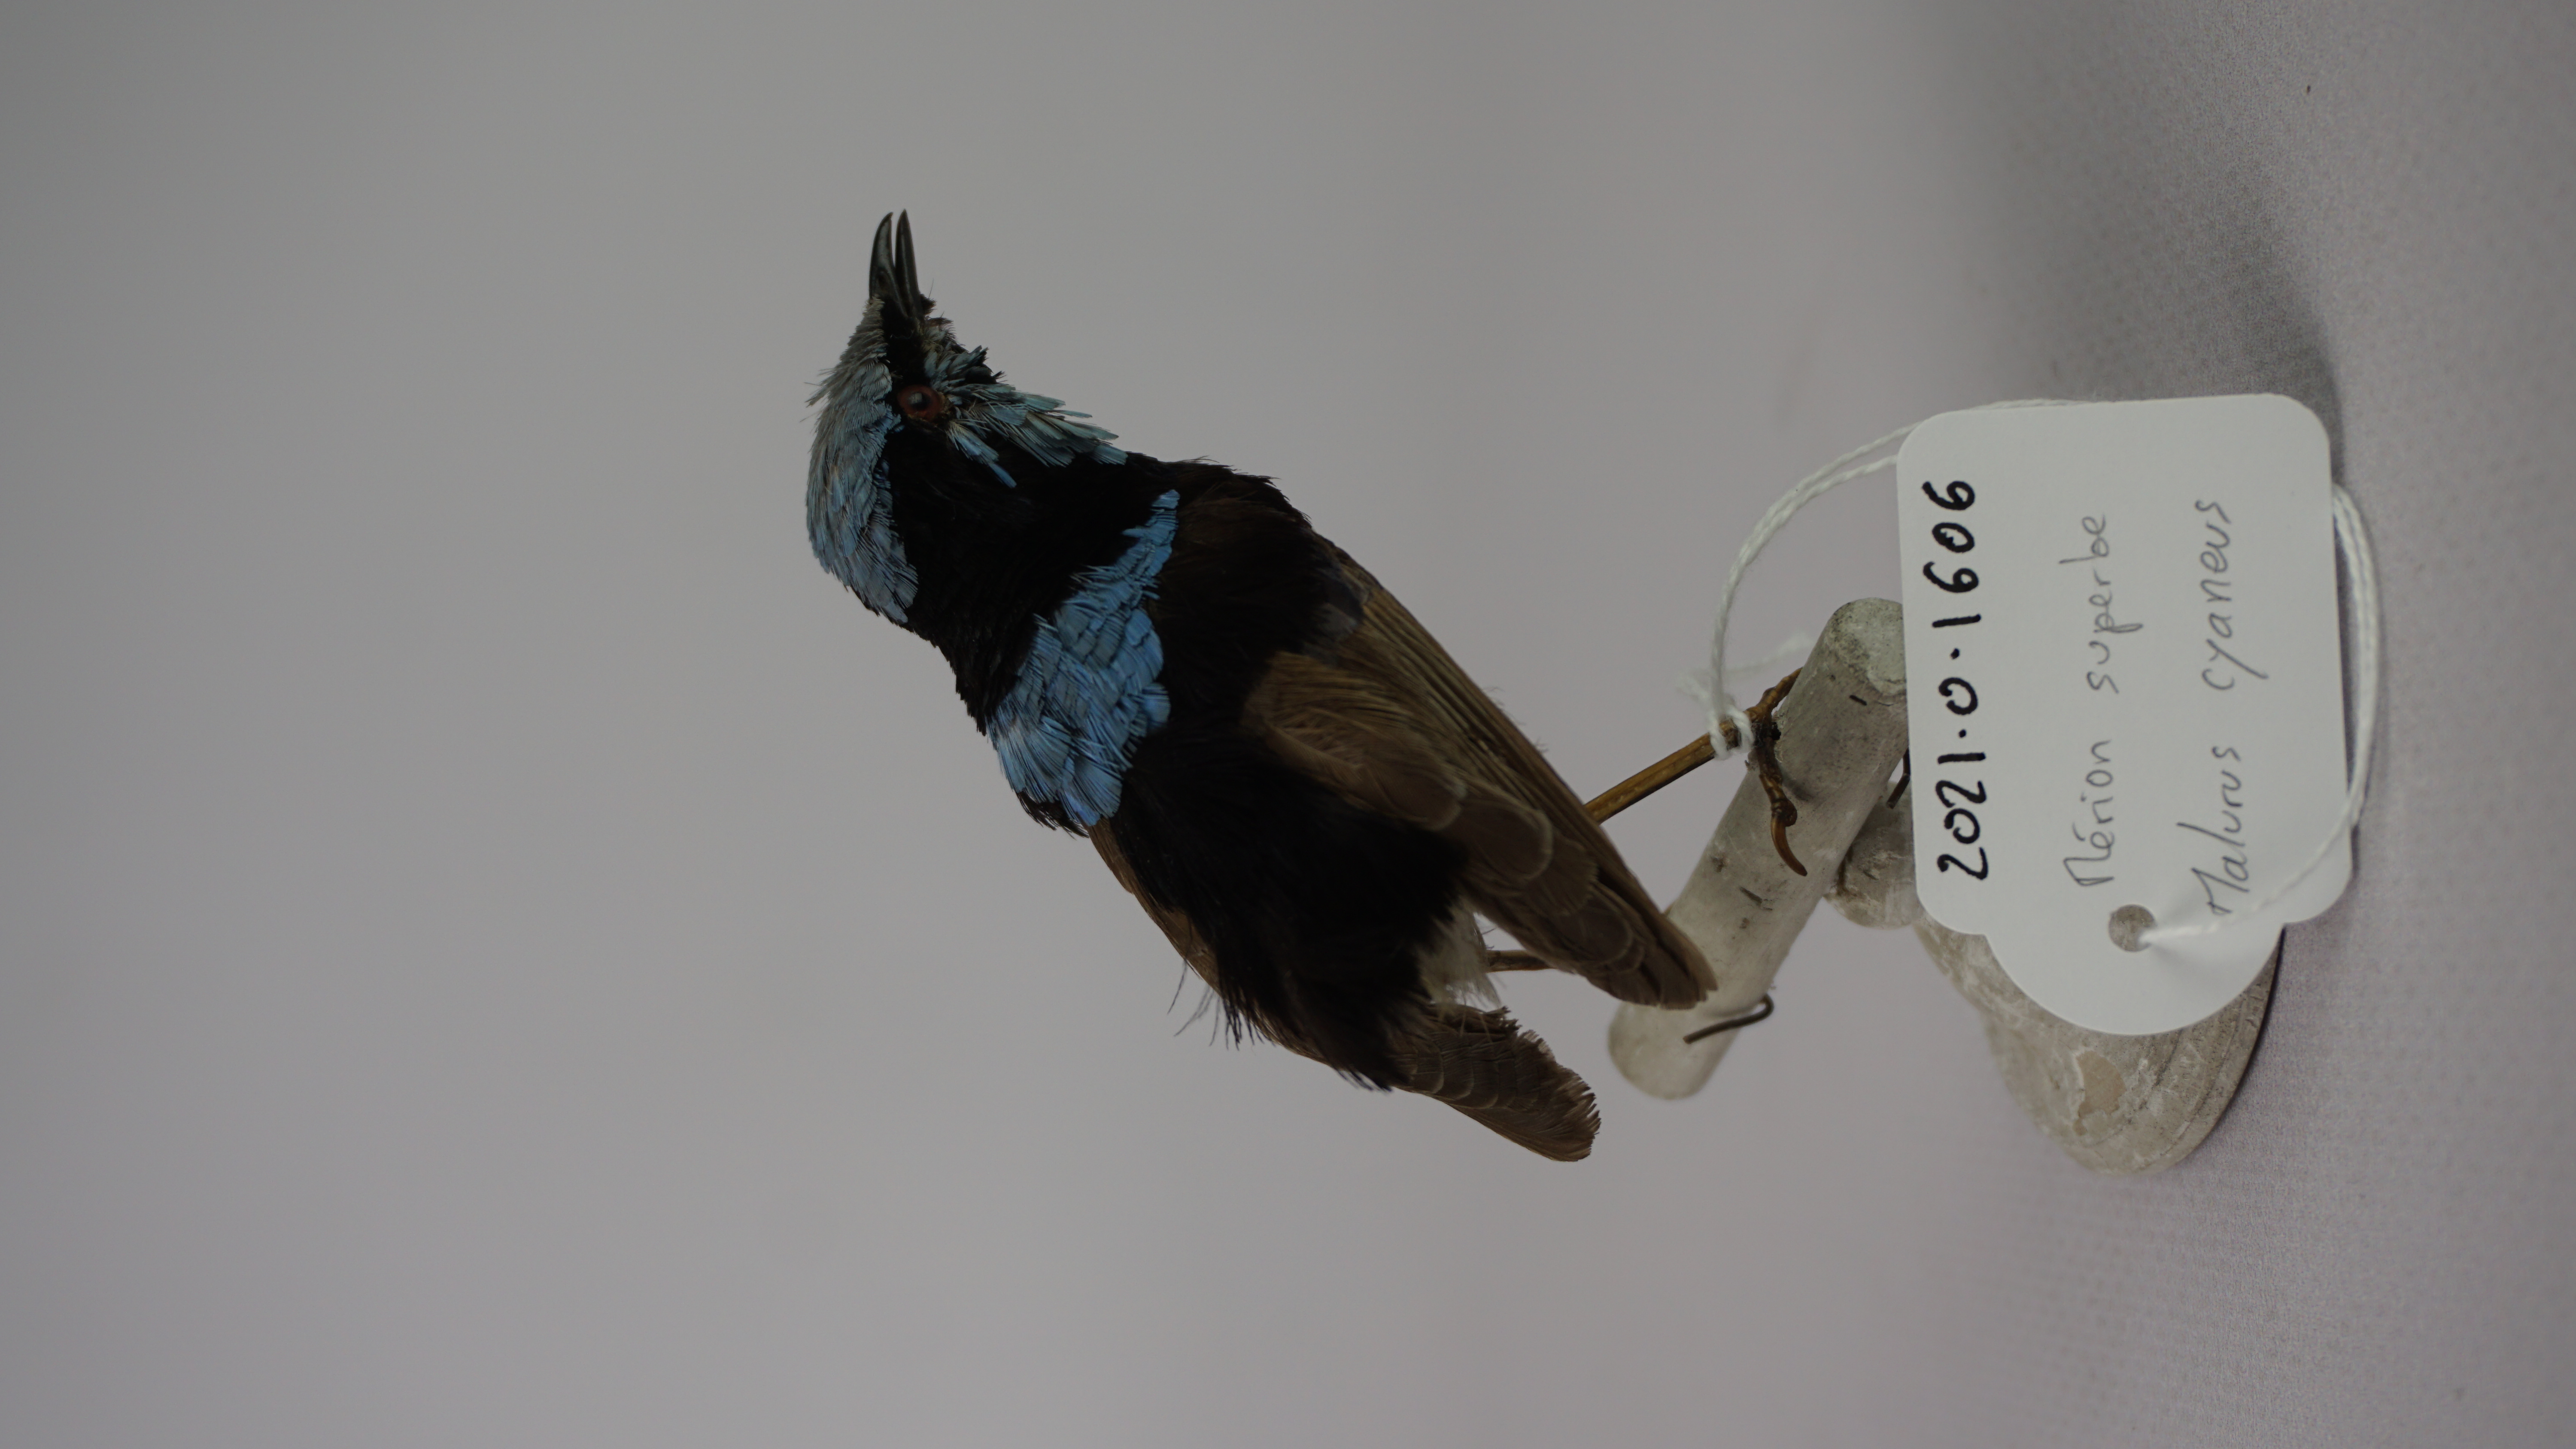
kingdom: Animalia
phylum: Chordata
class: Aves
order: Passeriformes
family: Maluridae
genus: Malurus
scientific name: Malurus cyaneus
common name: Superb fairywren
